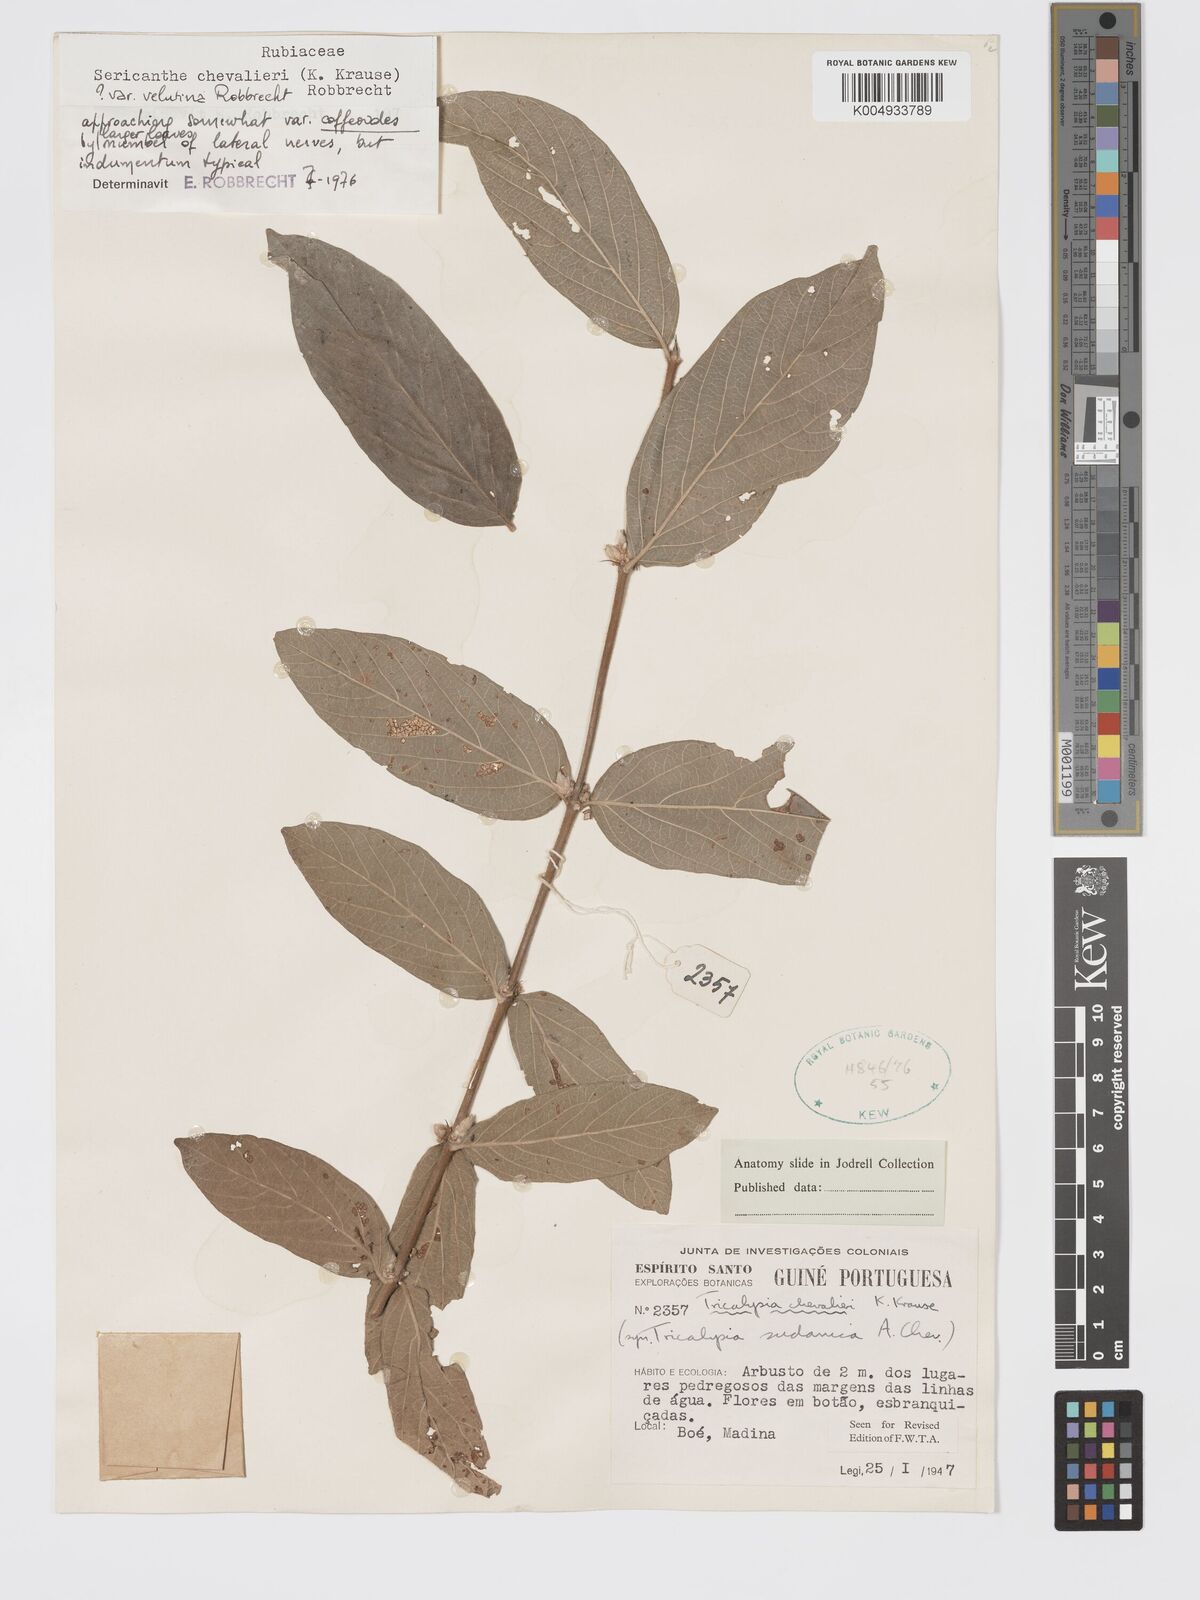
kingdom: Plantae
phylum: Tracheophyta
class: Magnoliopsida
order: Gentianales
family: Rubiaceae
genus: Sericanthe
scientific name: Sericanthe chevalieri
